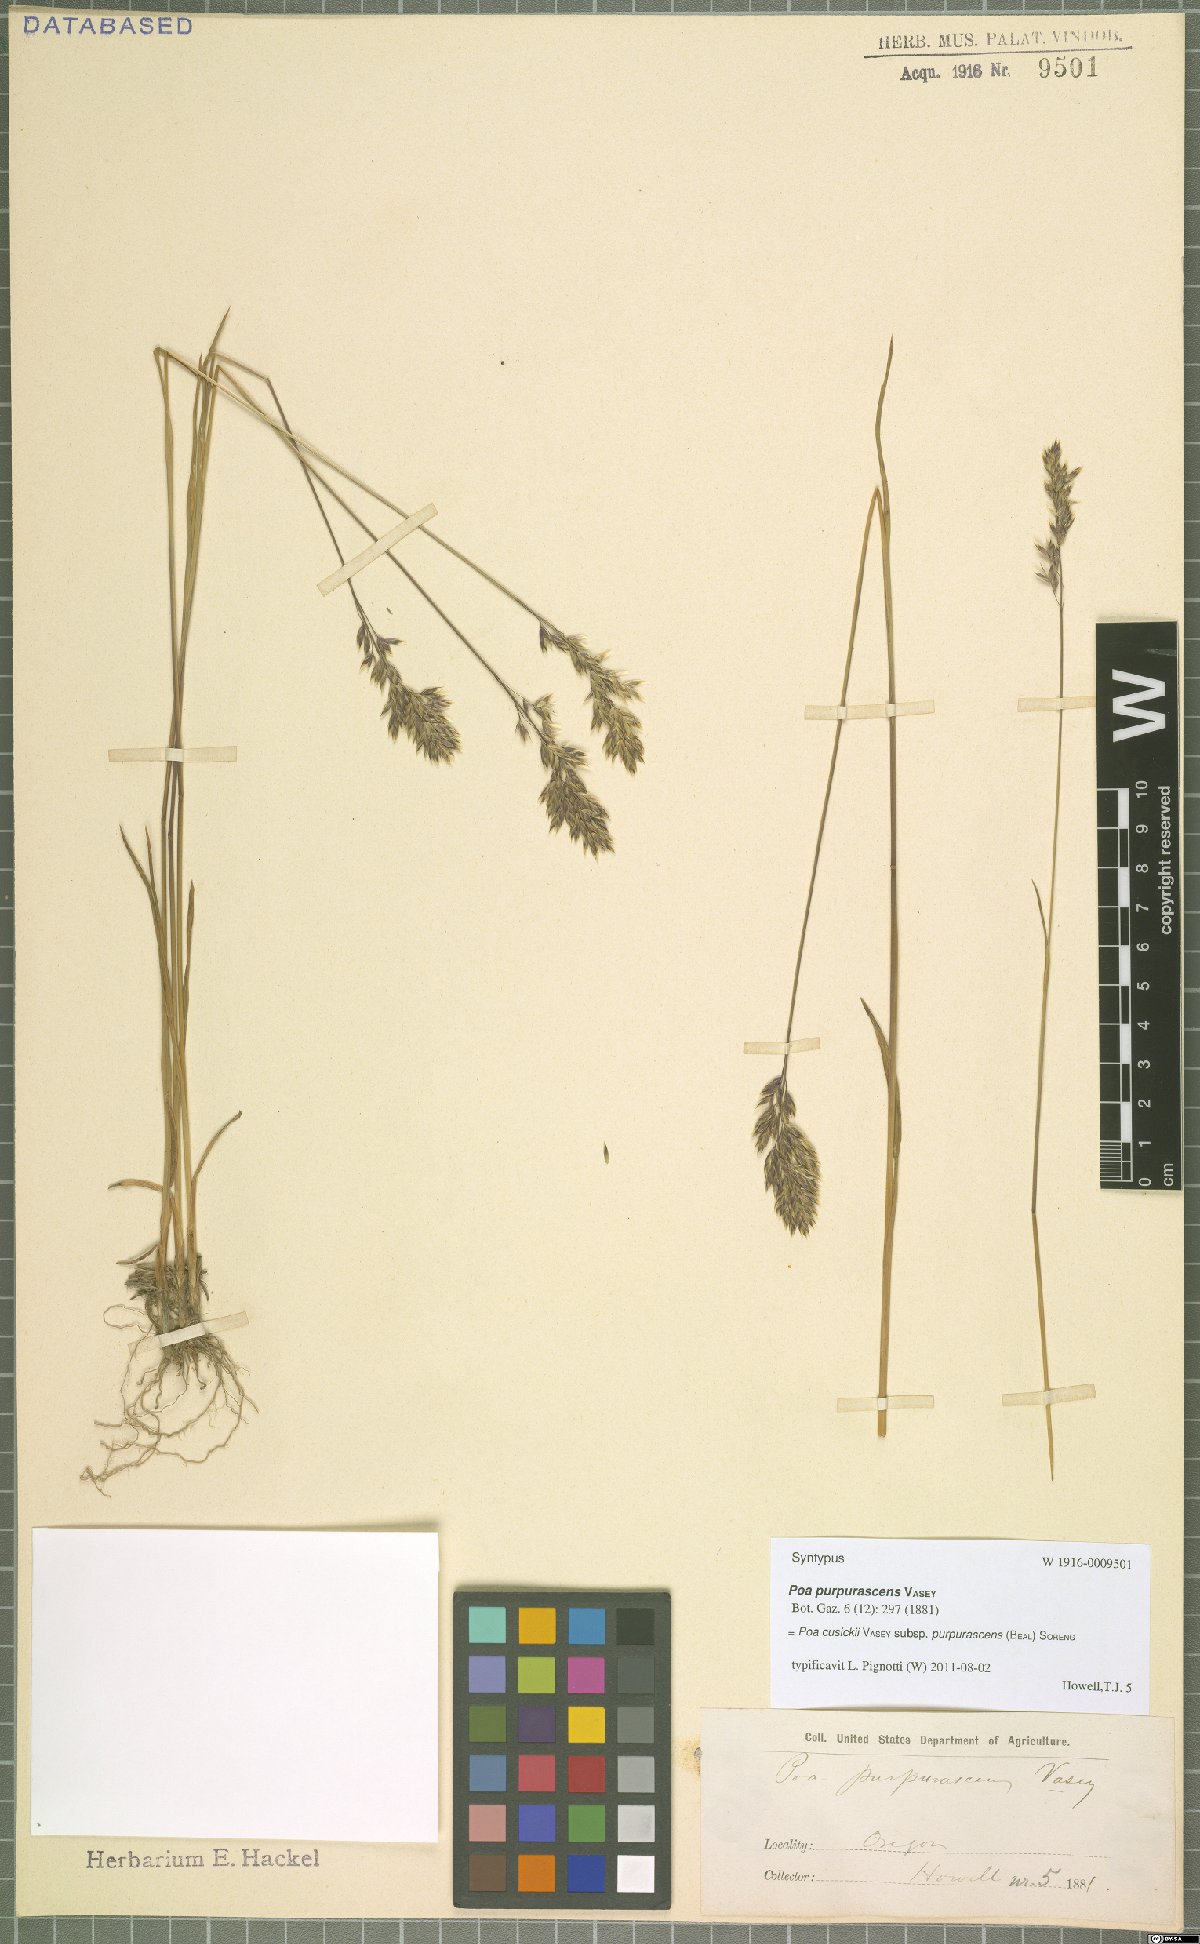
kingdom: Plantae
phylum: Tracheophyta
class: Liliopsida
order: Poales
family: Poaceae
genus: Poa
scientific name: Poa cusickii
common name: Cusick's bluegrass
